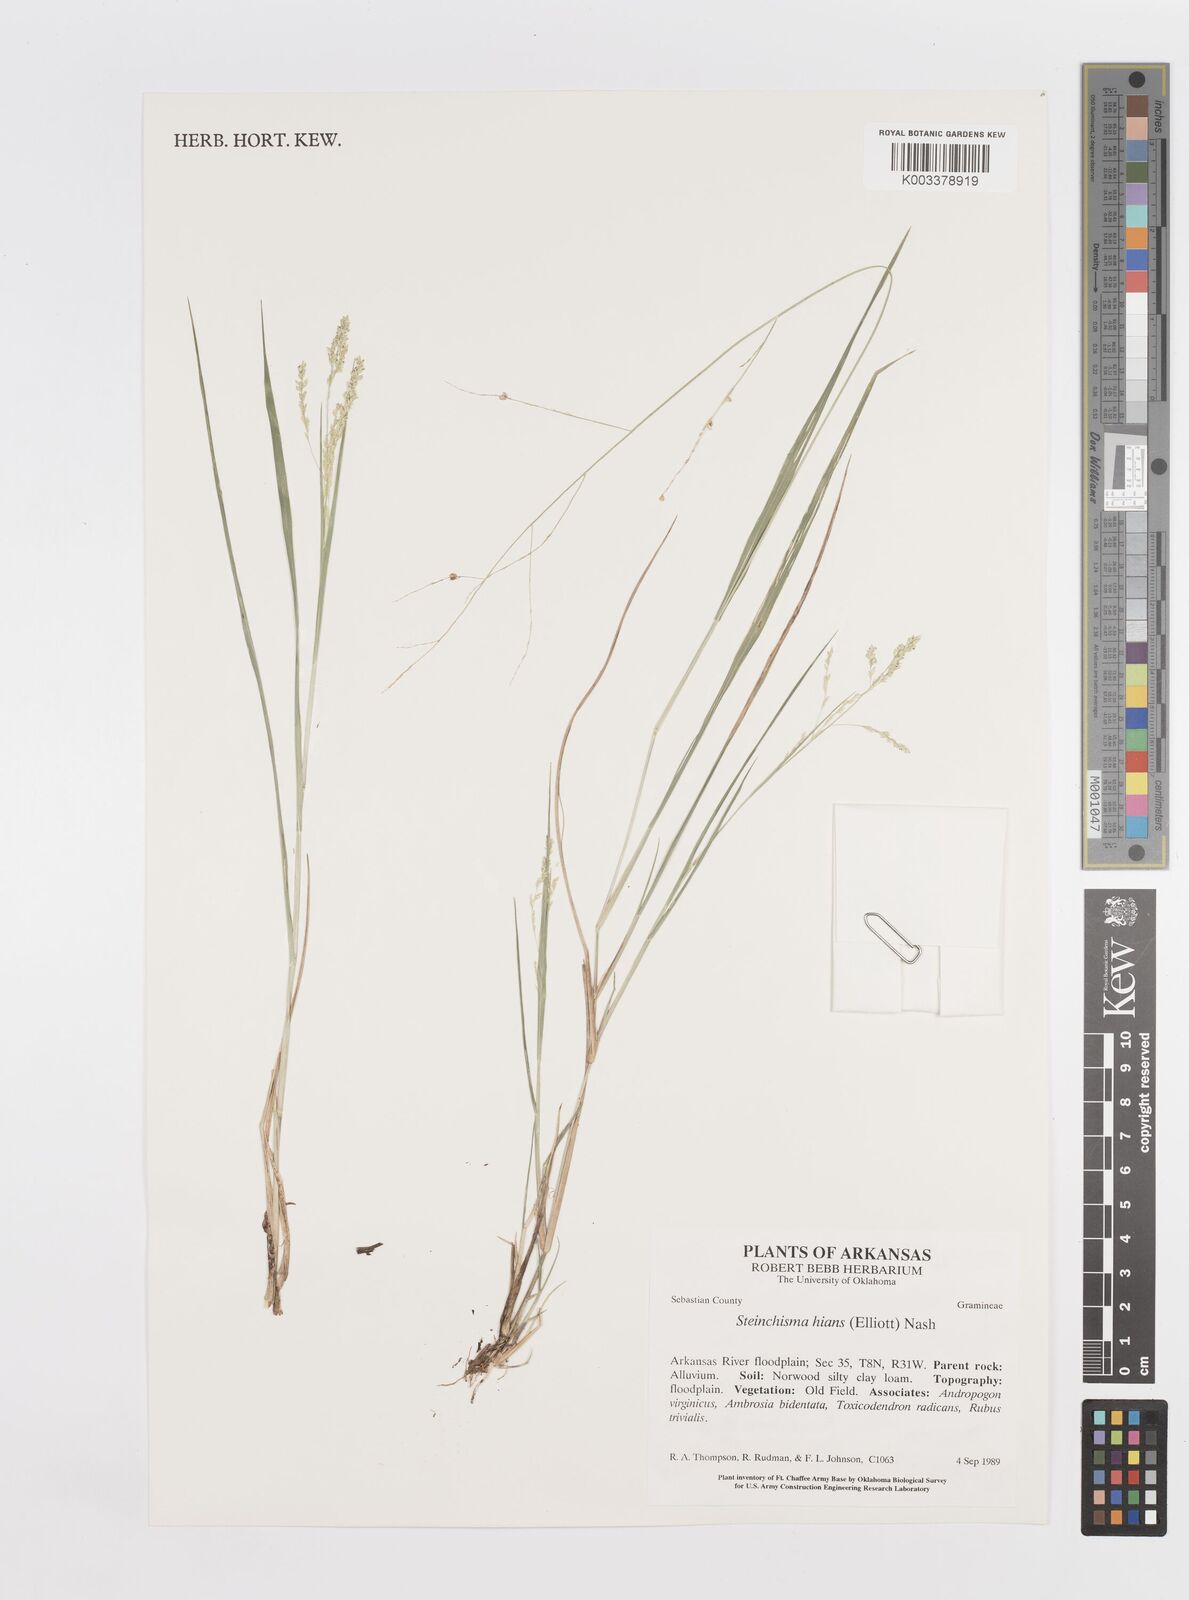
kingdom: Plantae
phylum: Tracheophyta
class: Liliopsida
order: Poales
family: Poaceae
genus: Steinchisma
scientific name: Steinchisma hians
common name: Gaping panic grass
